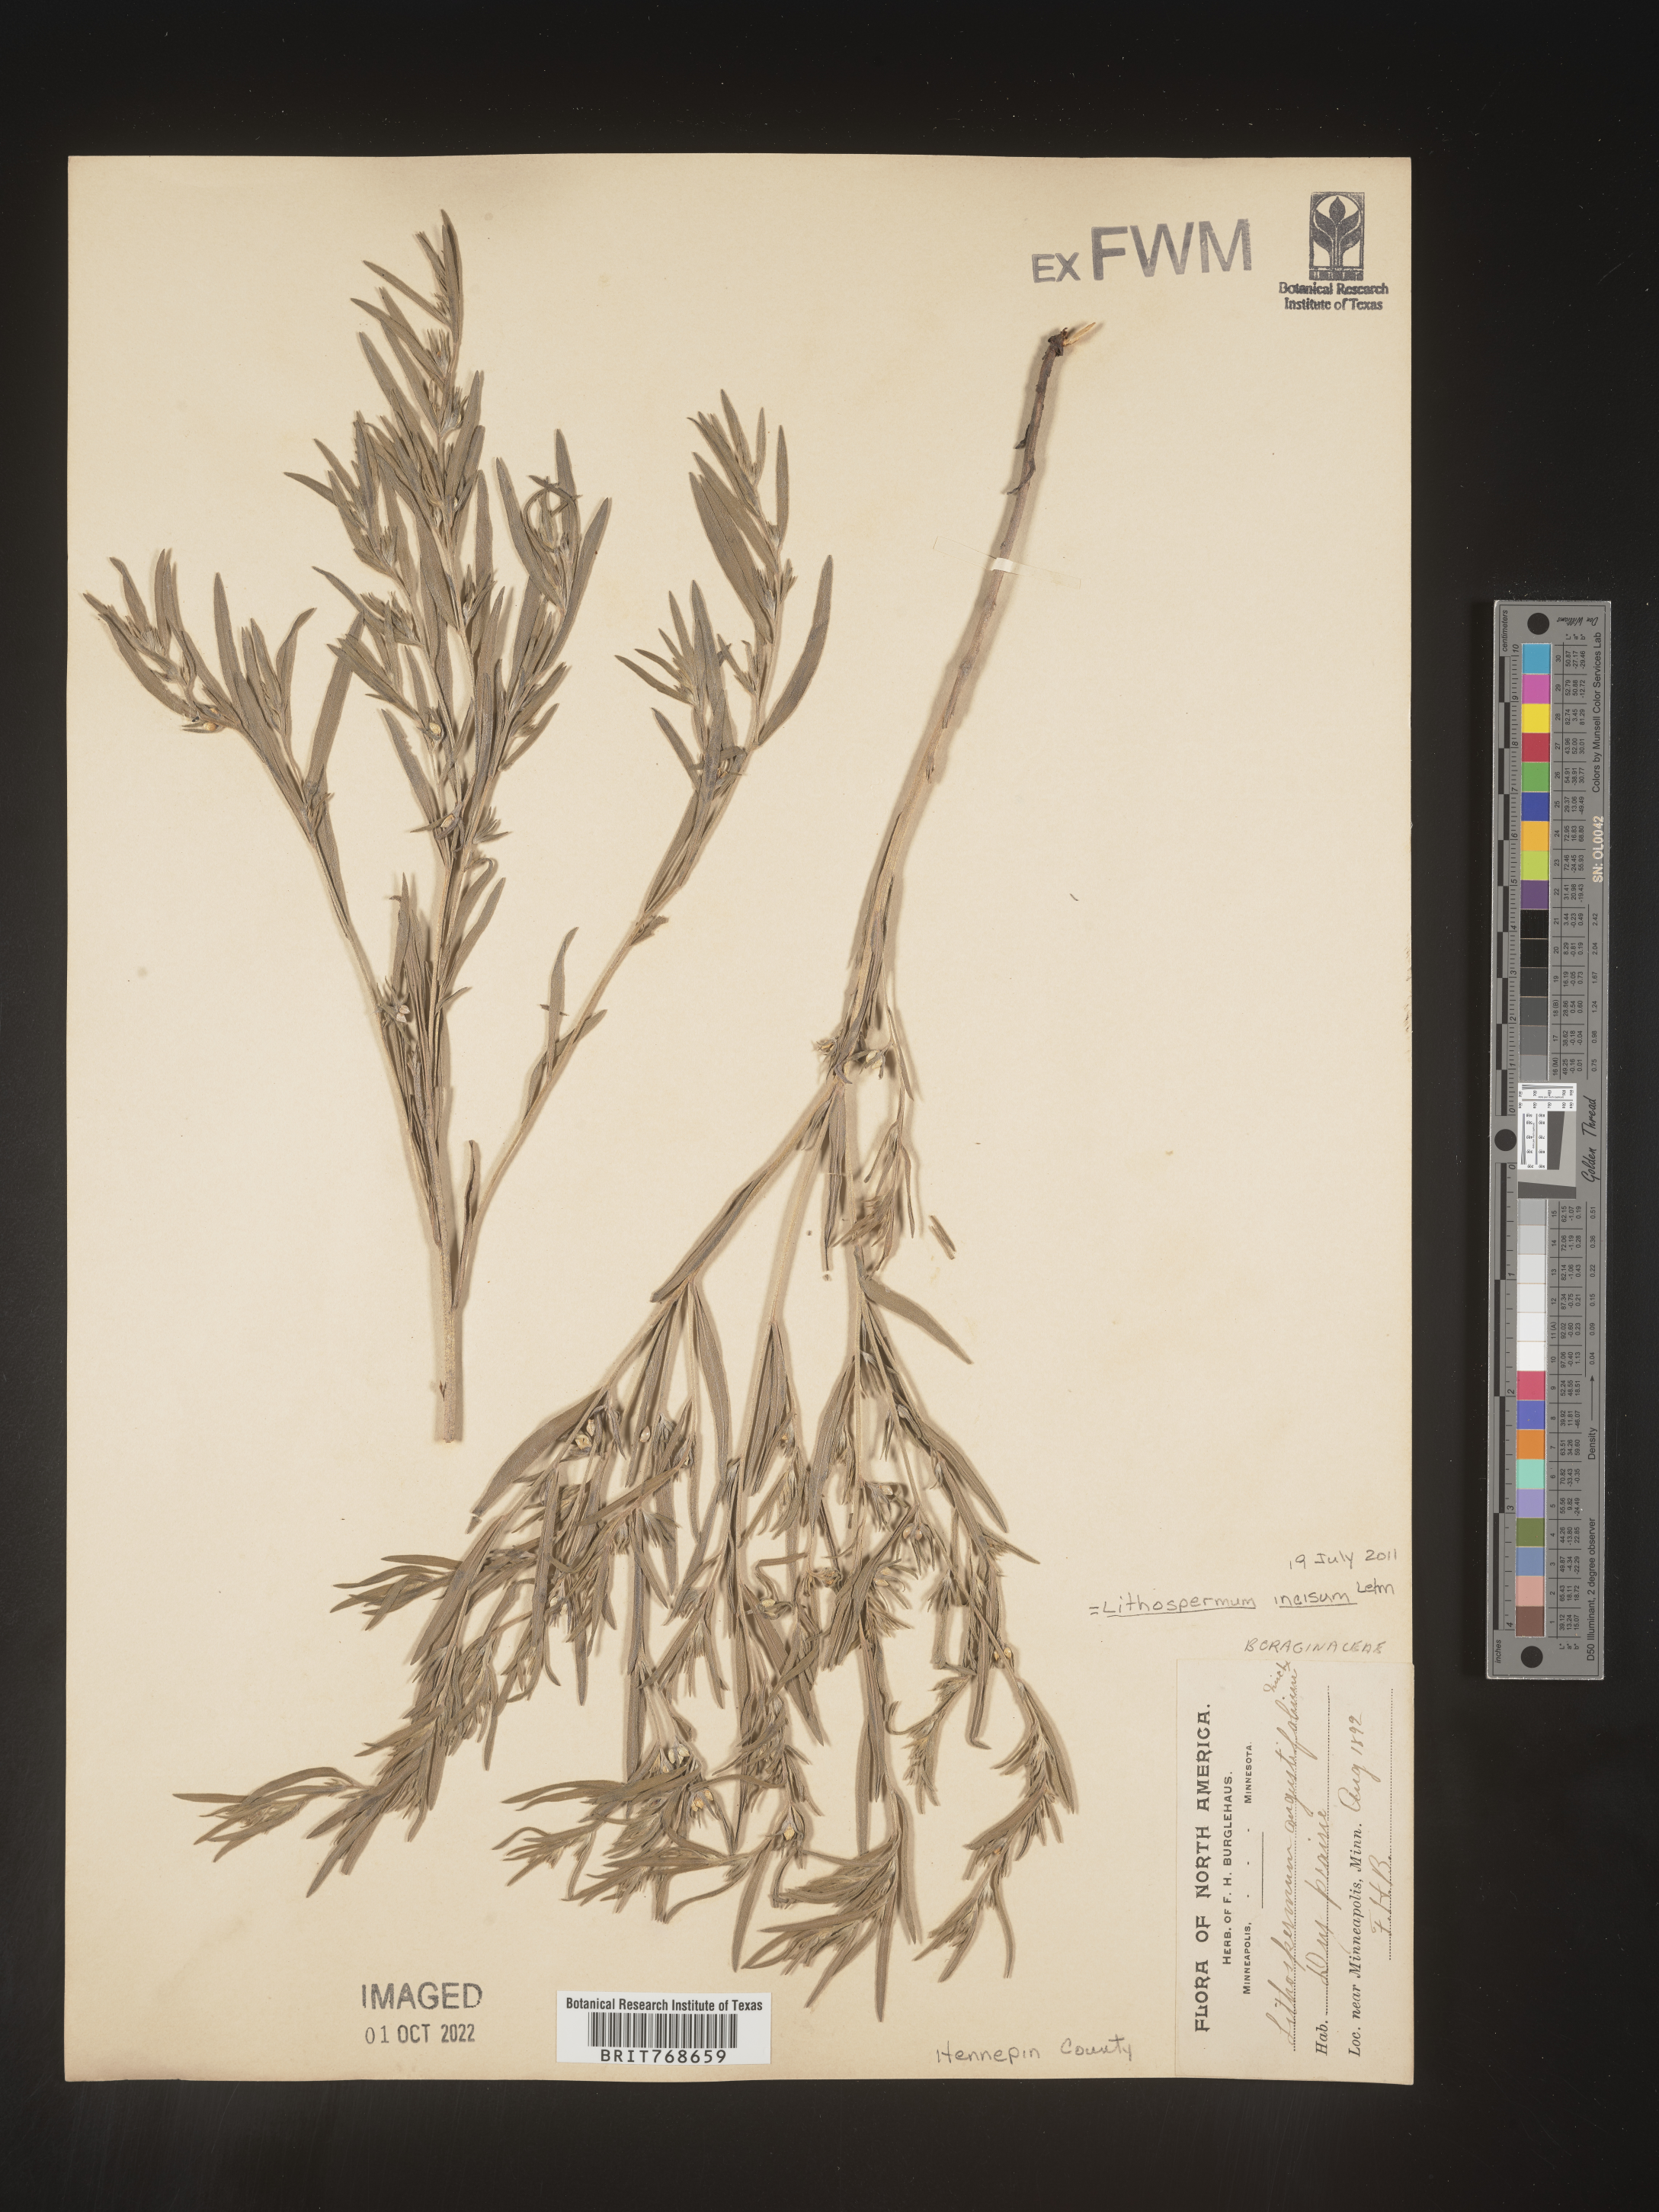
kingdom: Plantae
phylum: Tracheophyta
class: Magnoliopsida
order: Boraginales
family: Boraginaceae
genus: Lithospermum
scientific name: Lithospermum incisum
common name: Fringed gromwell
